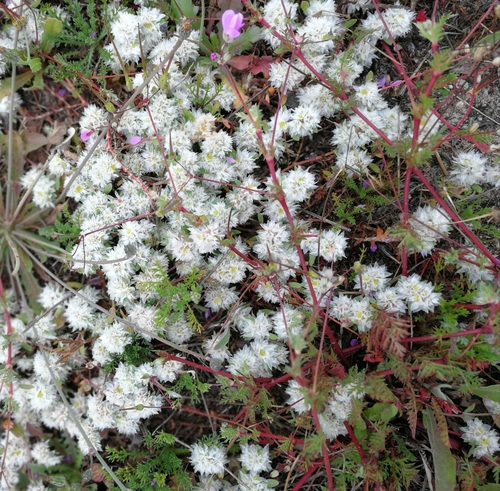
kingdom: Plantae
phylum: Tracheophyta
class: Magnoliopsida
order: Caryophyllales
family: Caryophyllaceae
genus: Paronychia
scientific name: Paronychia argentea
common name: Silver nailroot
